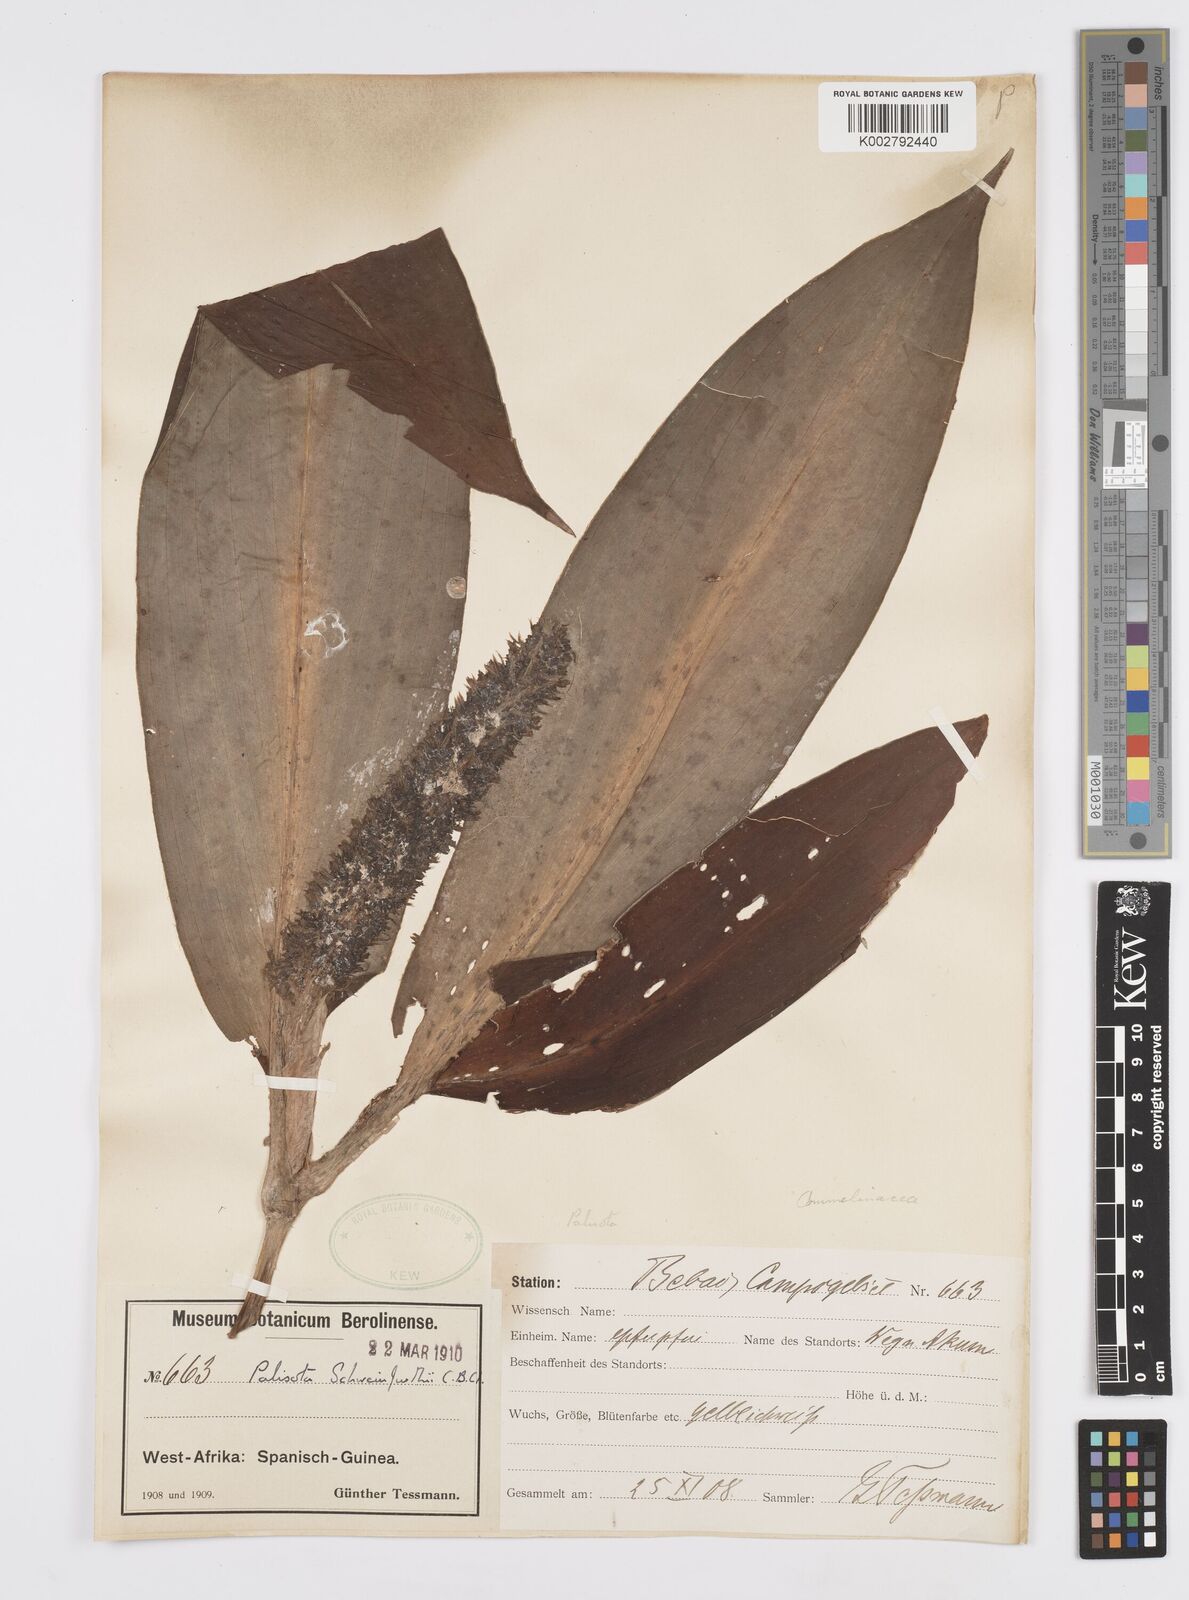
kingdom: Plantae
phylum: Tracheophyta
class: Liliopsida
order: Commelinales
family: Commelinaceae
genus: Palisota
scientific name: Palisota schweinfurthii
